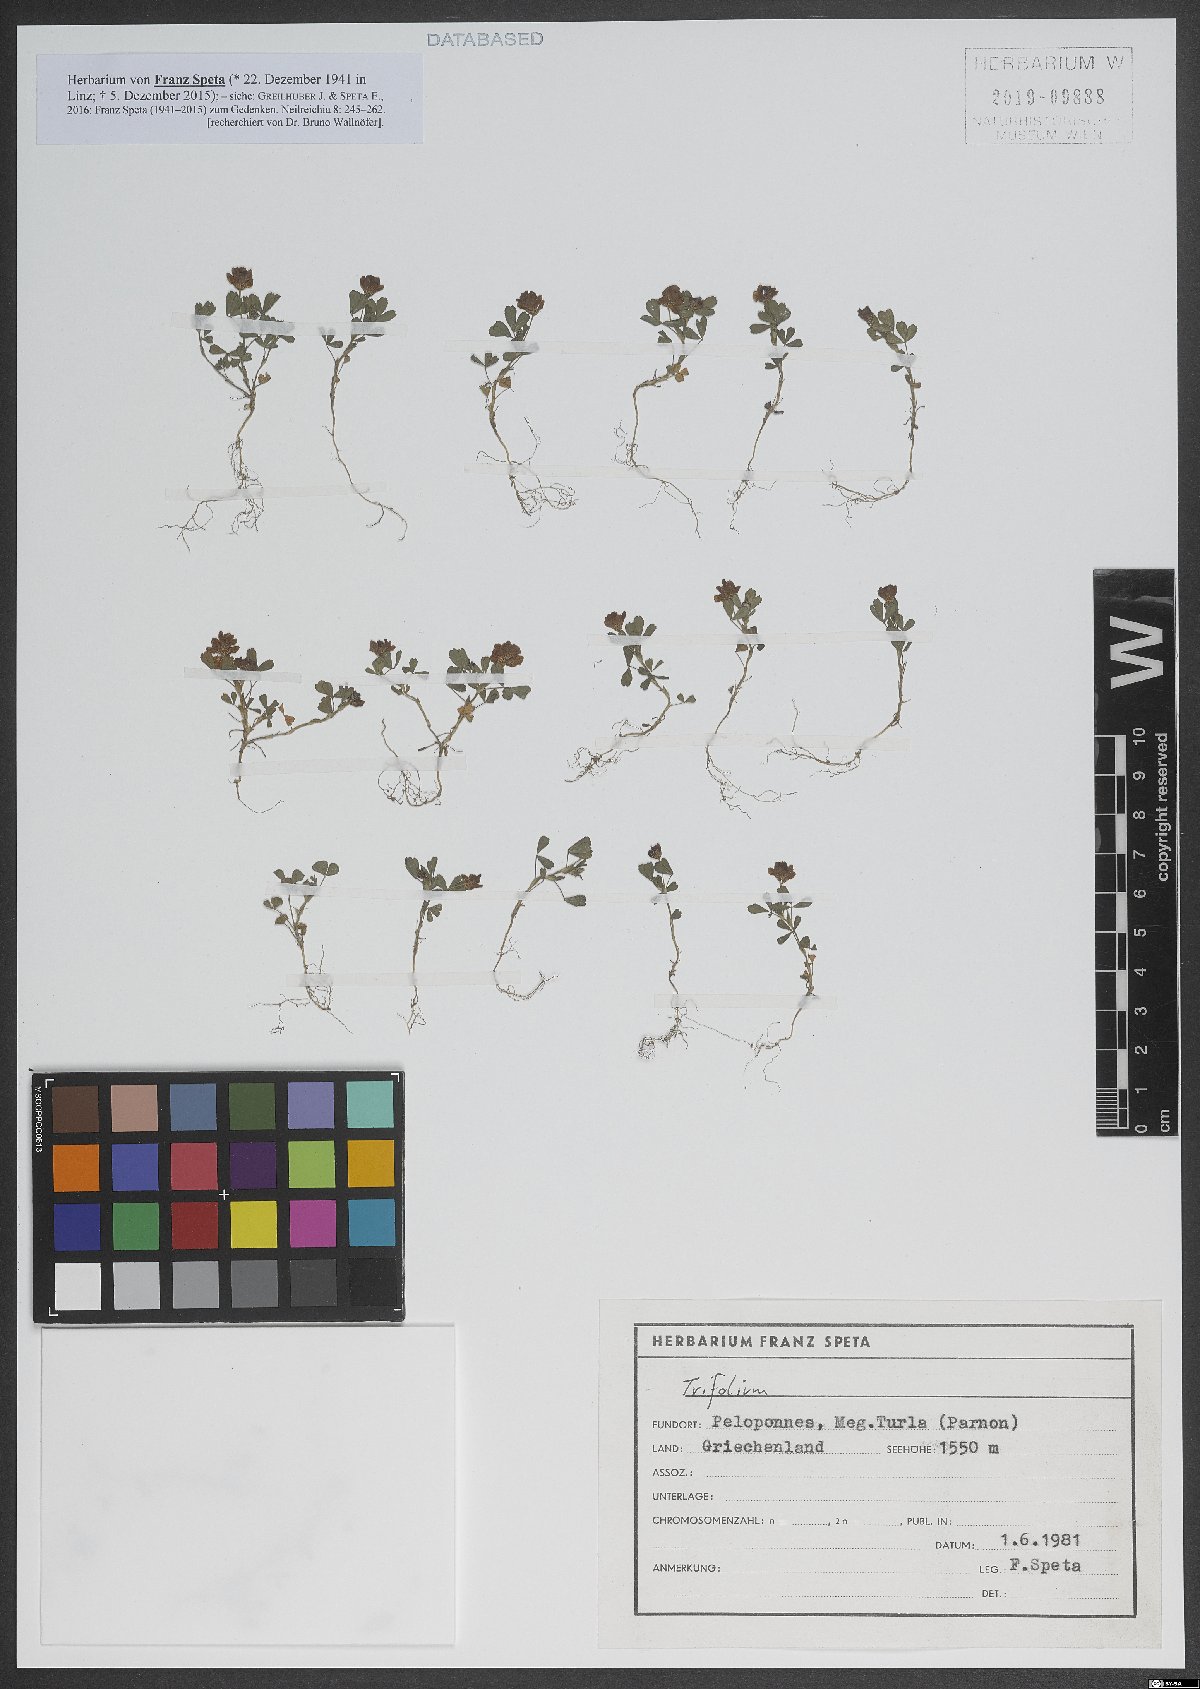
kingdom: Plantae
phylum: Tracheophyta
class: Magnoliopsida
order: Fabales
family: Fabaceae
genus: Trifolium
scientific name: Trifolium campestre
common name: Field clover
